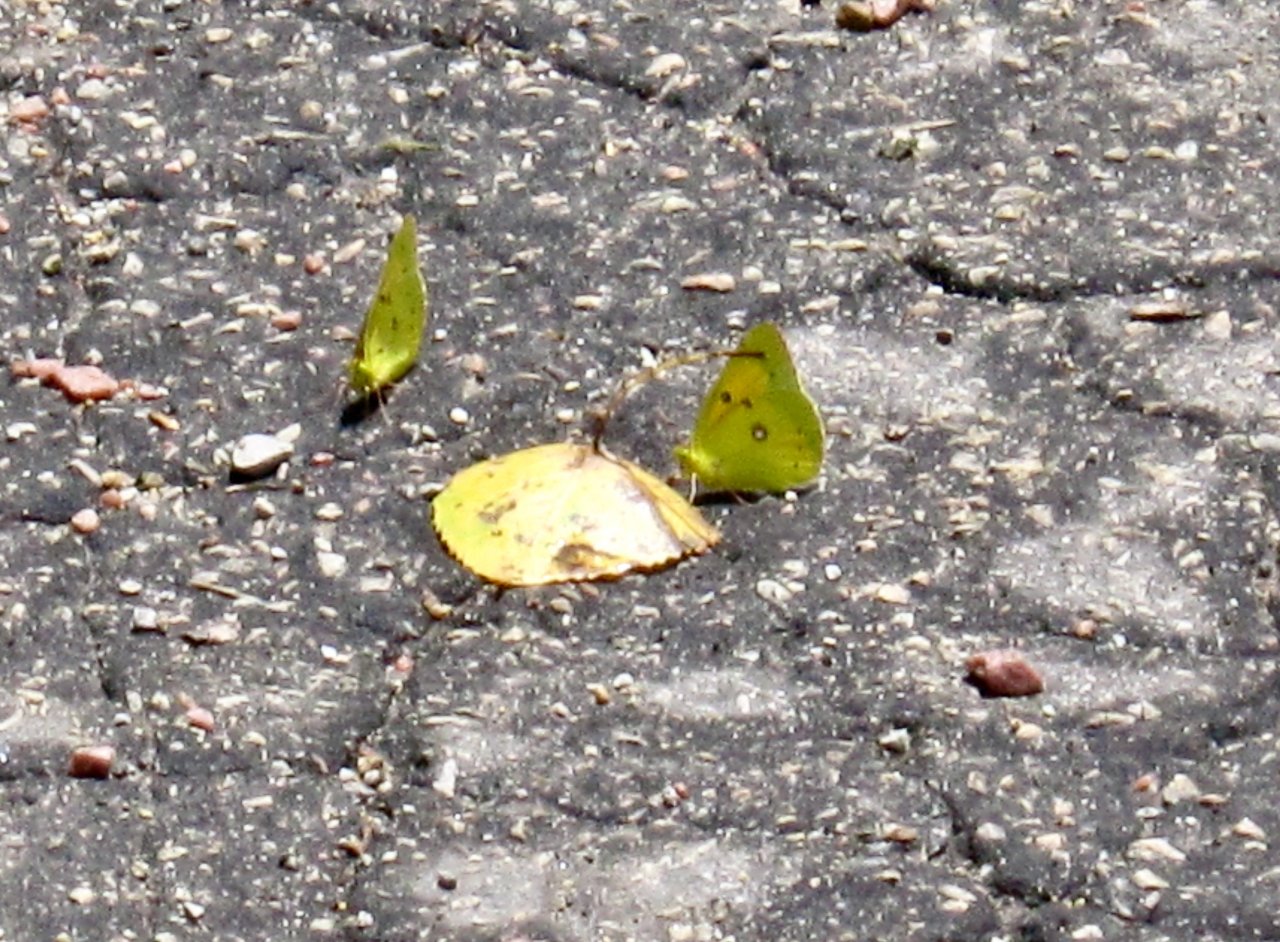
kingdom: Animalia
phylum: Arthropoda
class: Insecta
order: Lepidoptera
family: Pieridae
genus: Colias
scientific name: Colias eurytheme
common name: Orange Sulphur
